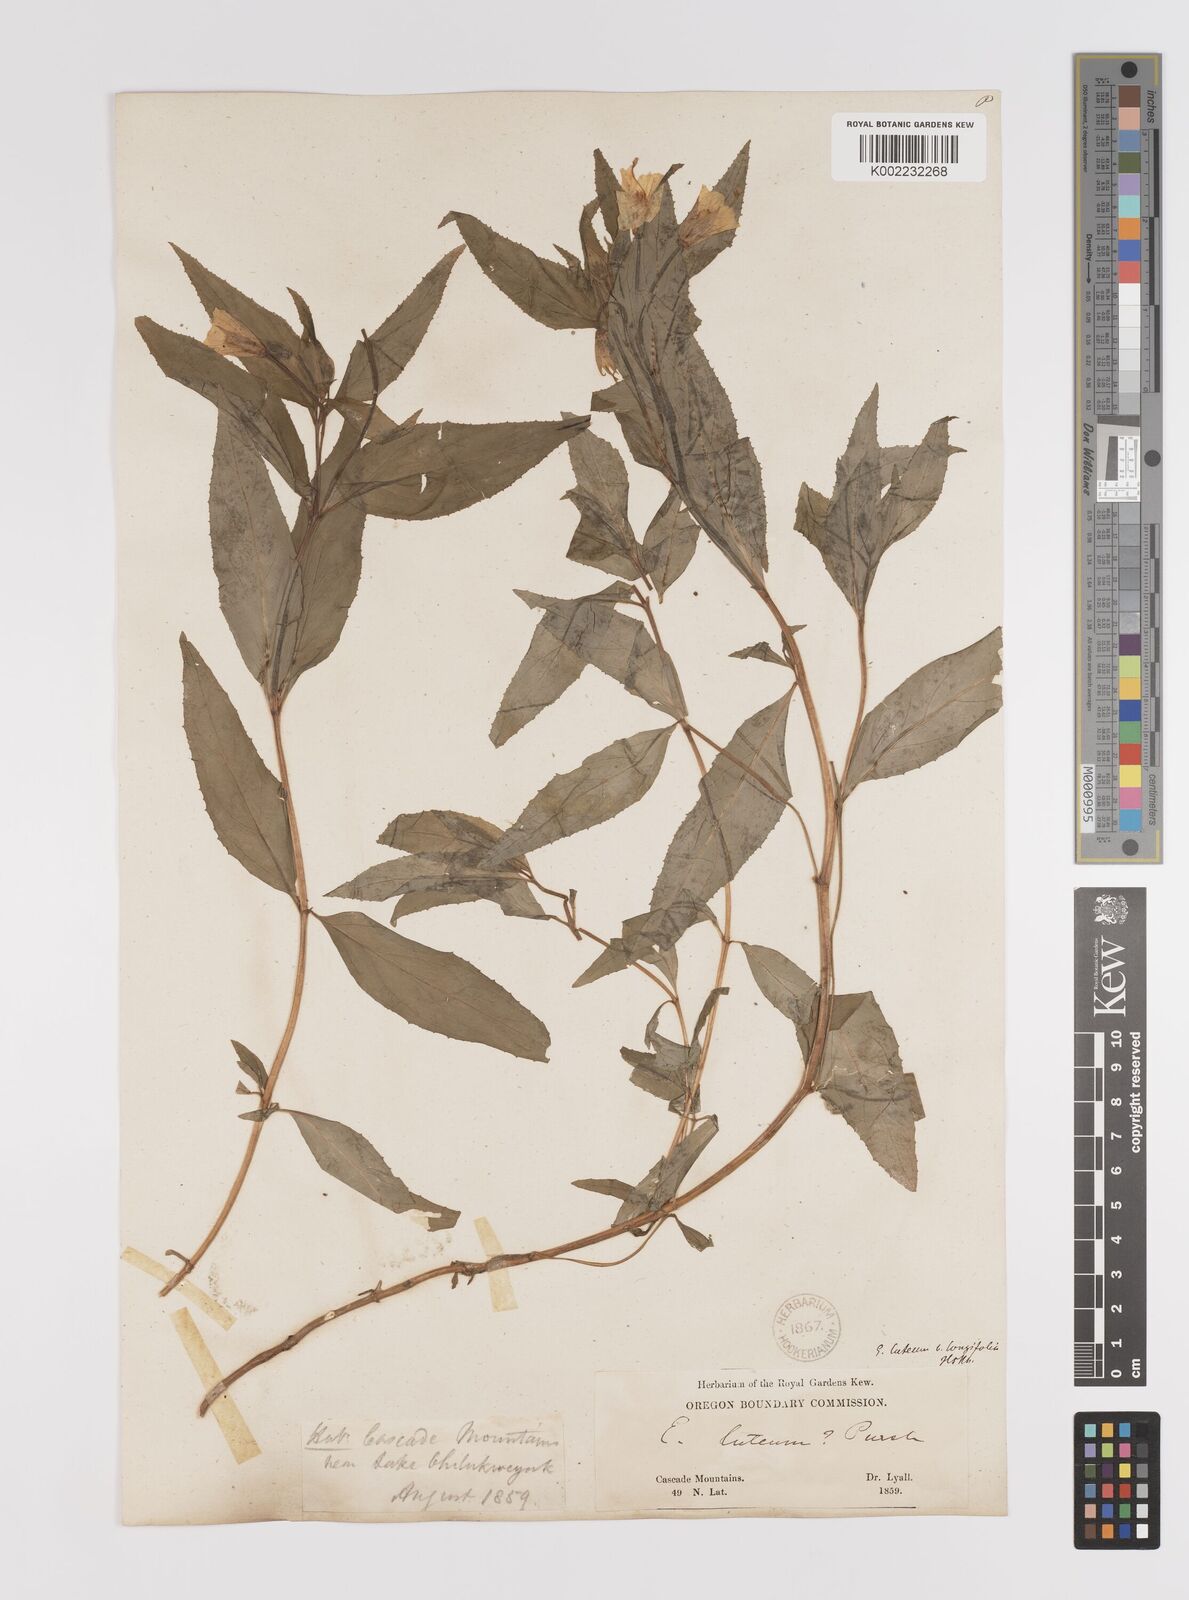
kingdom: Plantae
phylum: Tracheophyta
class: Magnoliopsida
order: Myrtales
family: Onagraceae
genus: Epilobium
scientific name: Epilobium luteum
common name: Yellow willowherb
